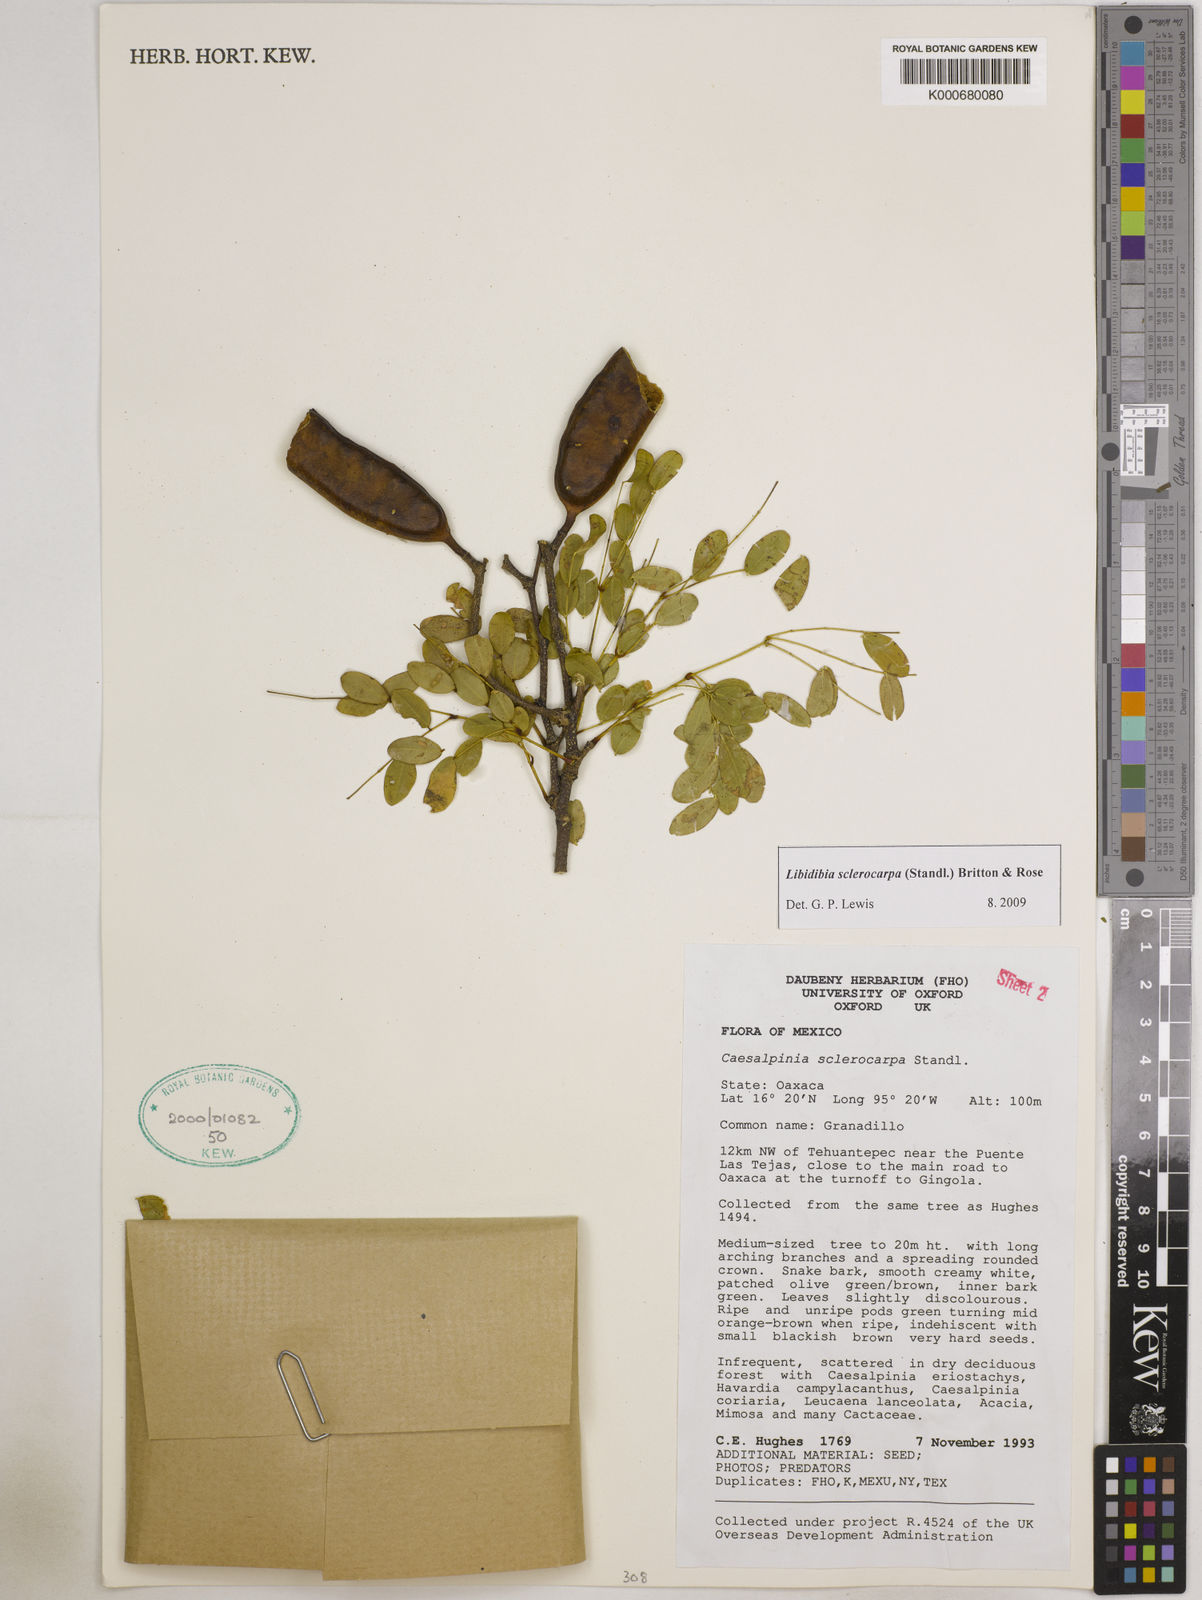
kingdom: Plantae
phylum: Tracheophyta
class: Magnoliopsida
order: Fabales
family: Fabaceae
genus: Libidibia
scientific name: Libidibia sclerocarpa
